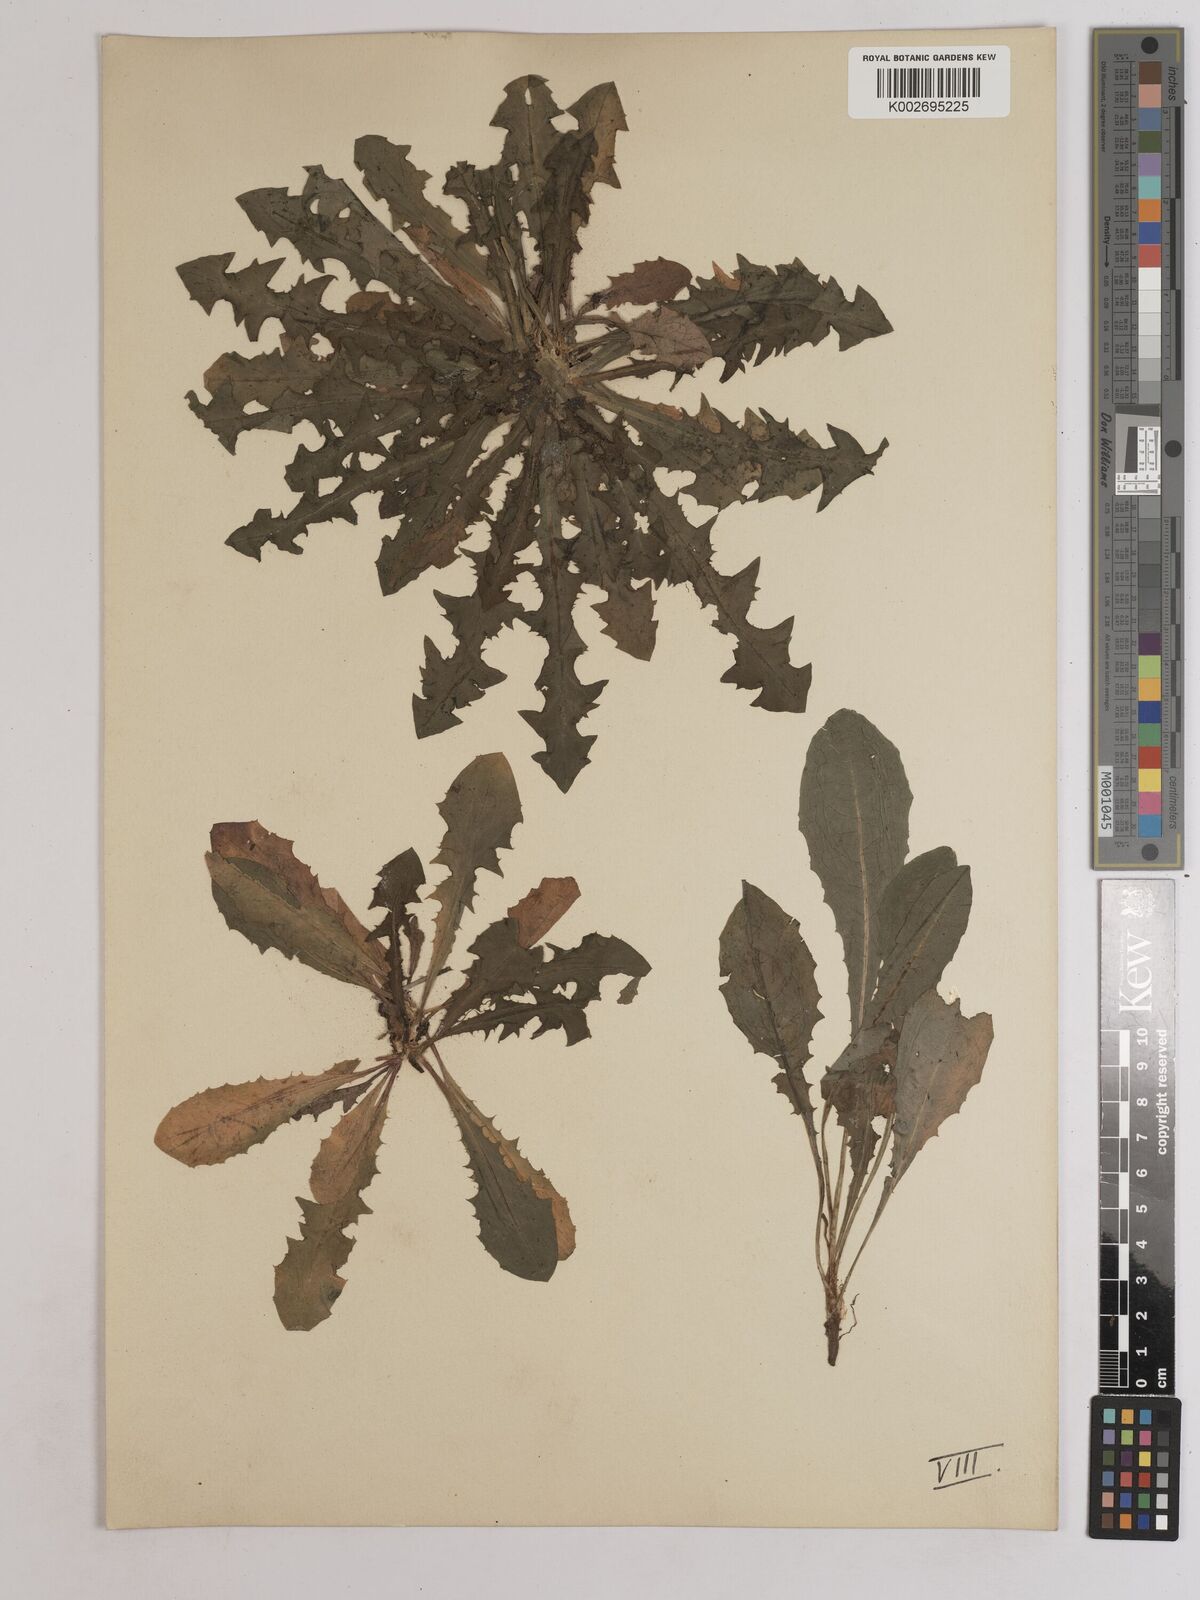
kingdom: Plantae
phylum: Tracheophyta
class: Magnoliopsida
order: Asterales
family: Asteraceae
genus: Taraxacum
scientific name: Taraxacum officinale
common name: Common dandelion
